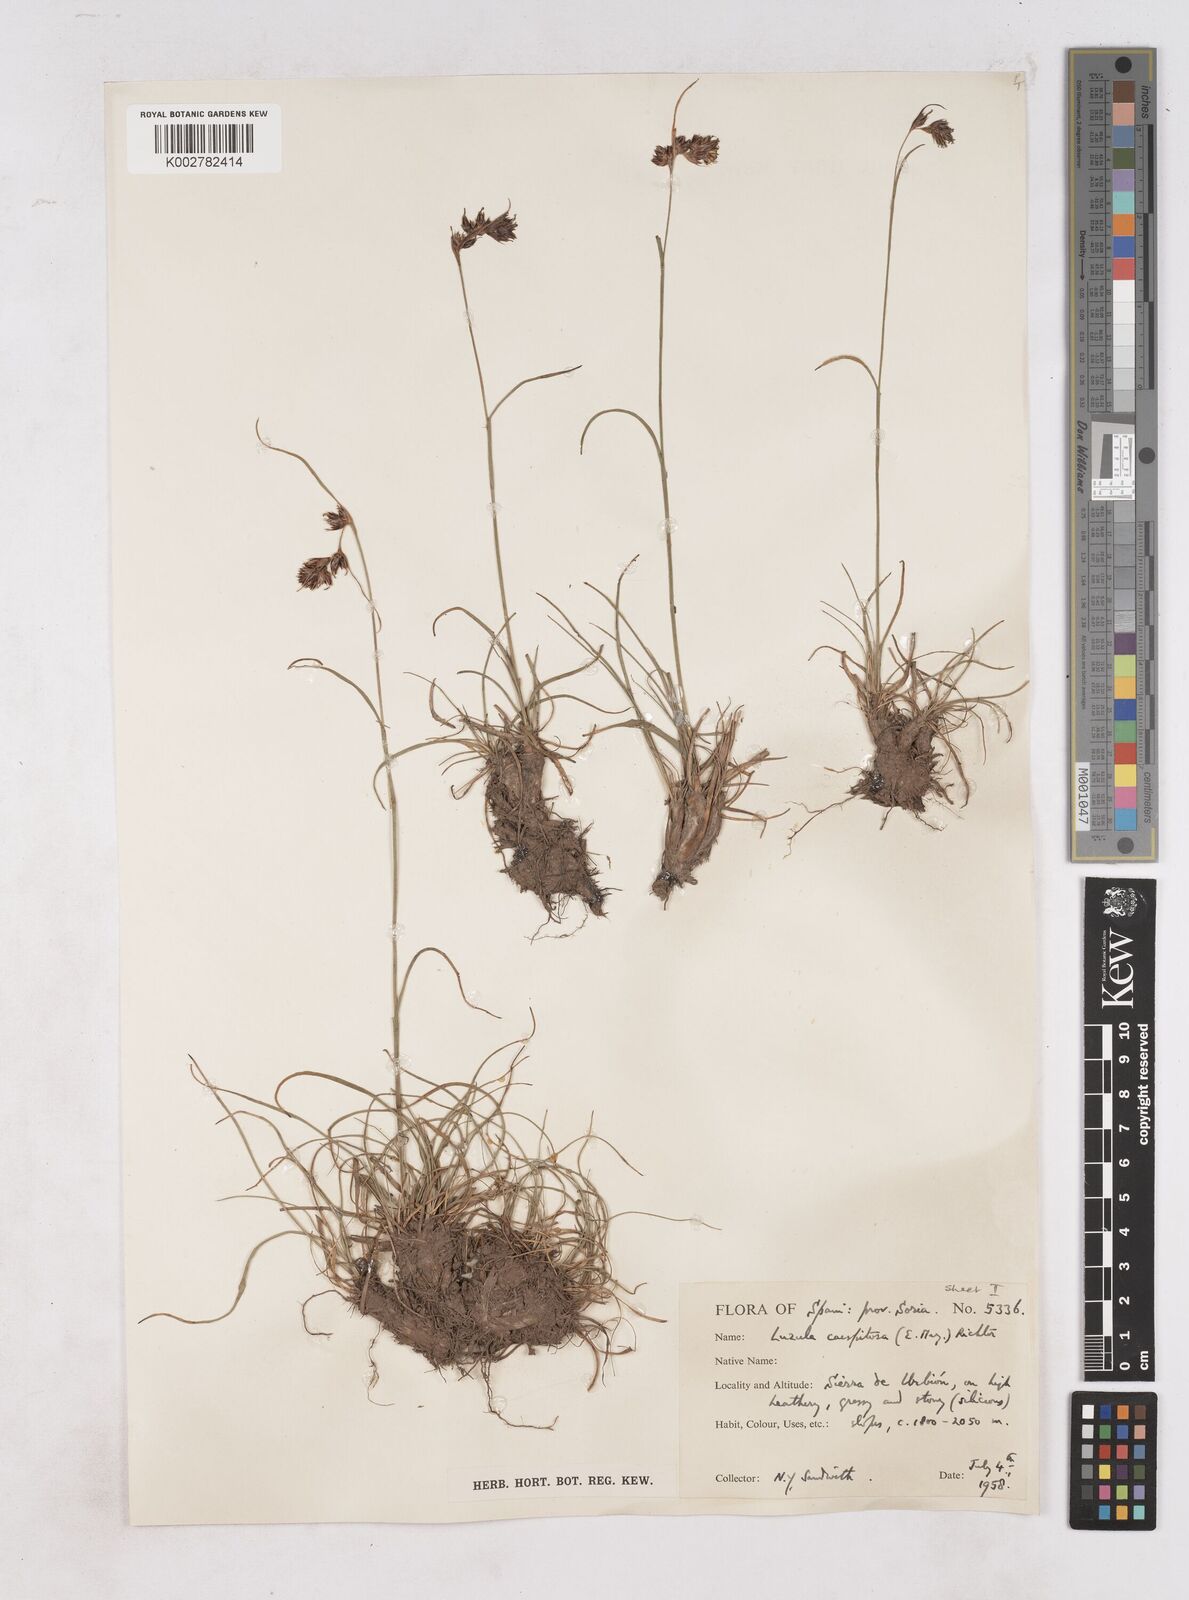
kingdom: Plantae
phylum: Tracheophyta
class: Liliopsida
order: Poales
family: Juncaceae
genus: Luzula
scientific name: Luzula caespitosa
